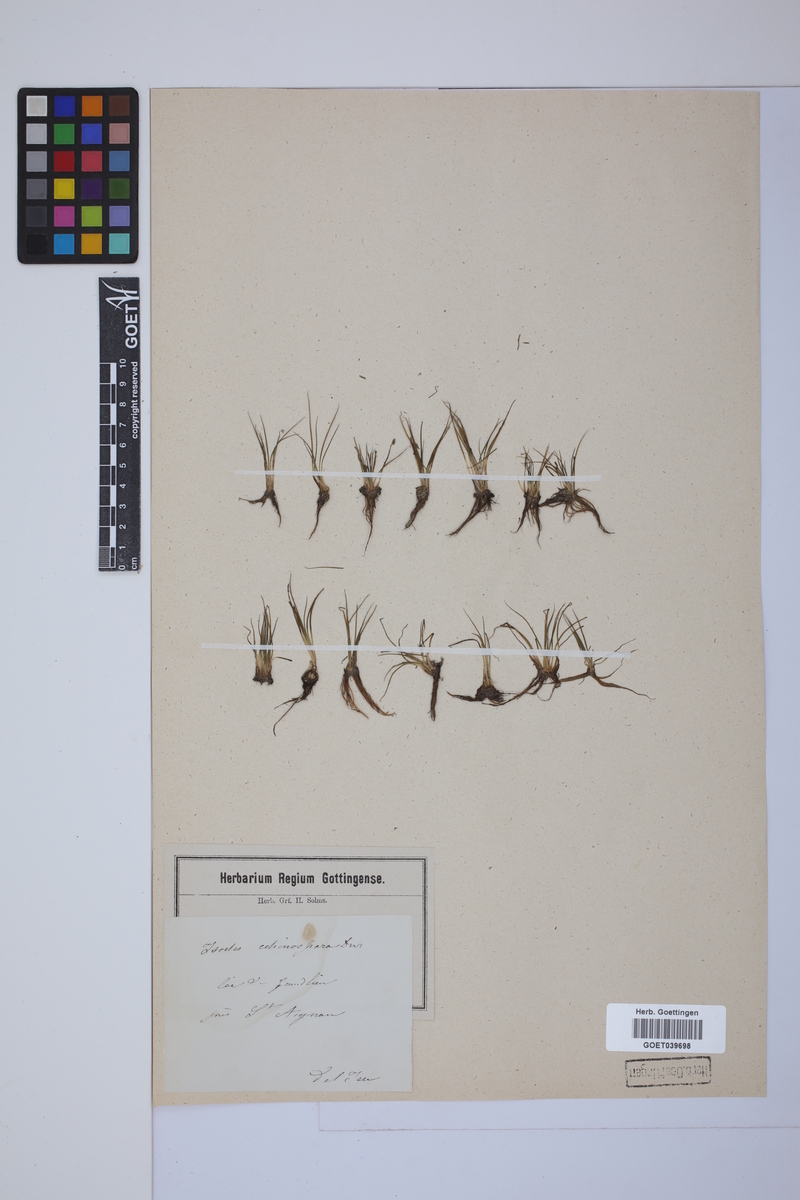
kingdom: Plantae
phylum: Tracheophyta
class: Lycopodiopsida
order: Isoetales
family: Isoetaceae
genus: Isoetes
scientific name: Isoetes echinospora
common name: Spring quillwort
